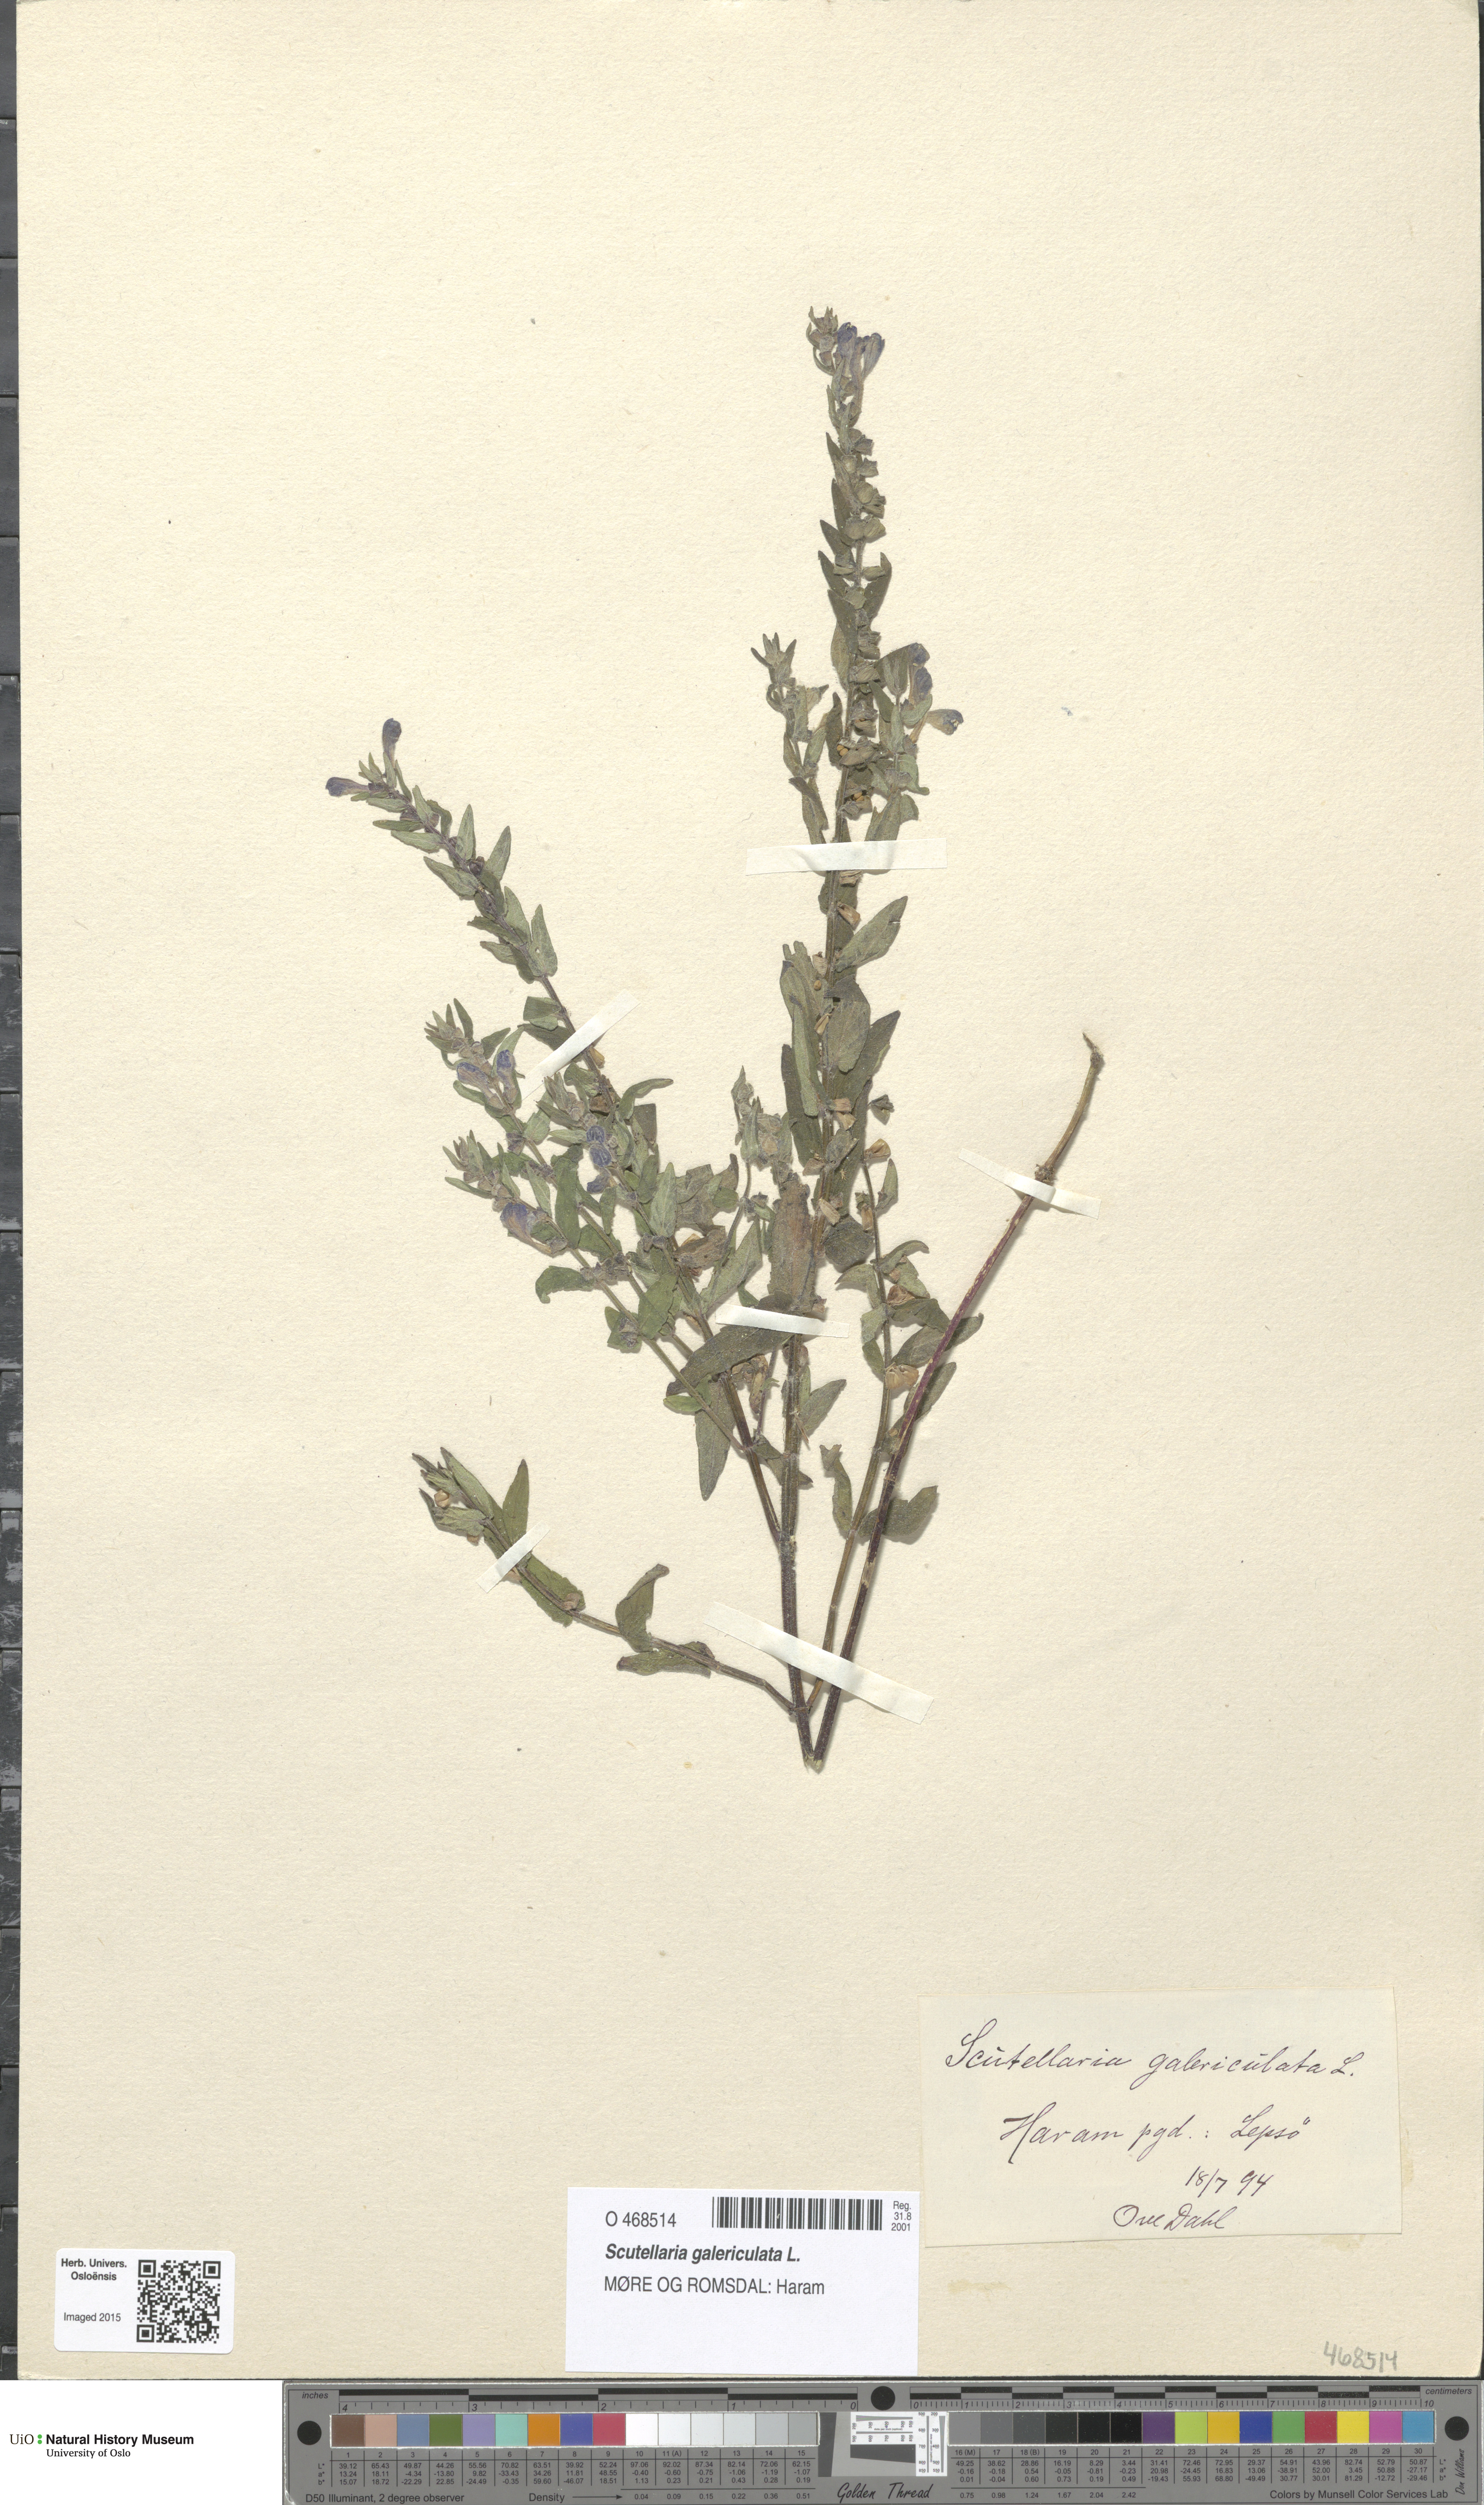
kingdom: Plantae
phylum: Tracheophyta
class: Magnoliopsida
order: Lamiales
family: Lamiaceae
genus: Scutellaria
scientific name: Scutellaria galericulata
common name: Skullcap
